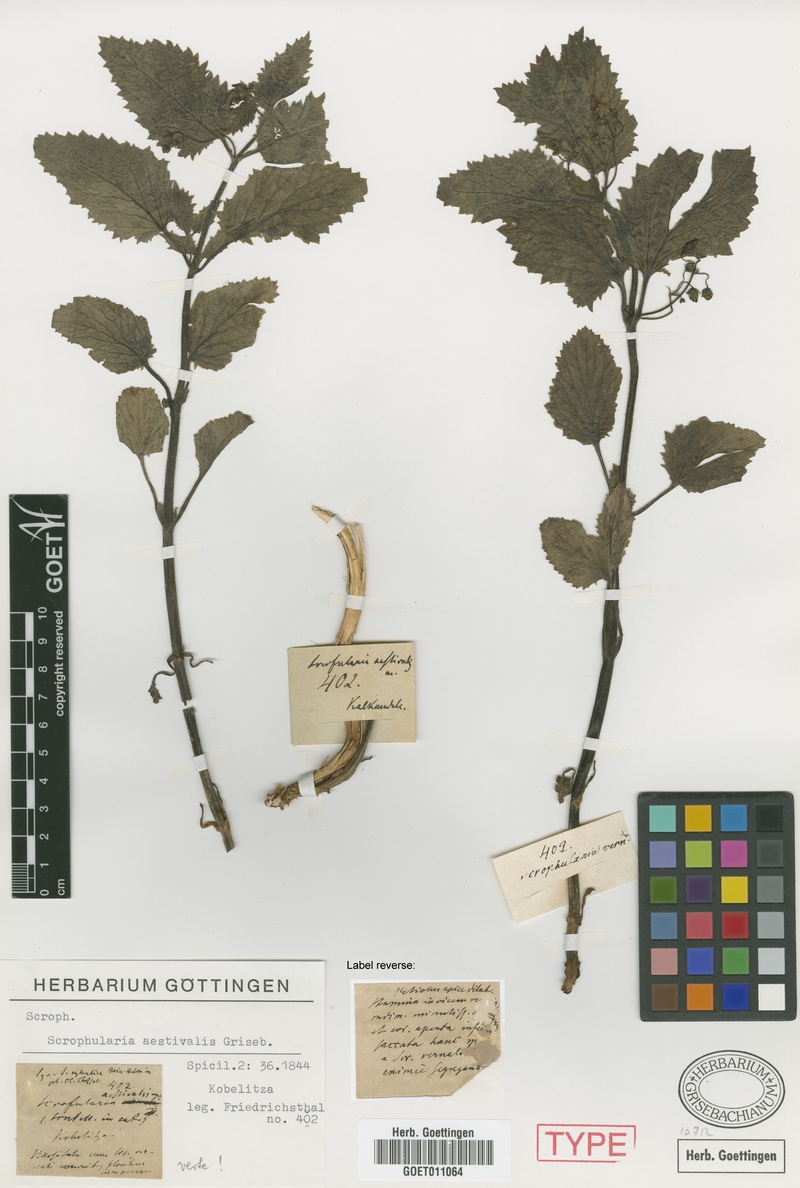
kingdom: Plantae
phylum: Tracheophyta
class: Magnoliopsida
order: Lamiales
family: Scrophulariaceae
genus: Scrophularia
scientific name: Scrophularia aestivalis
